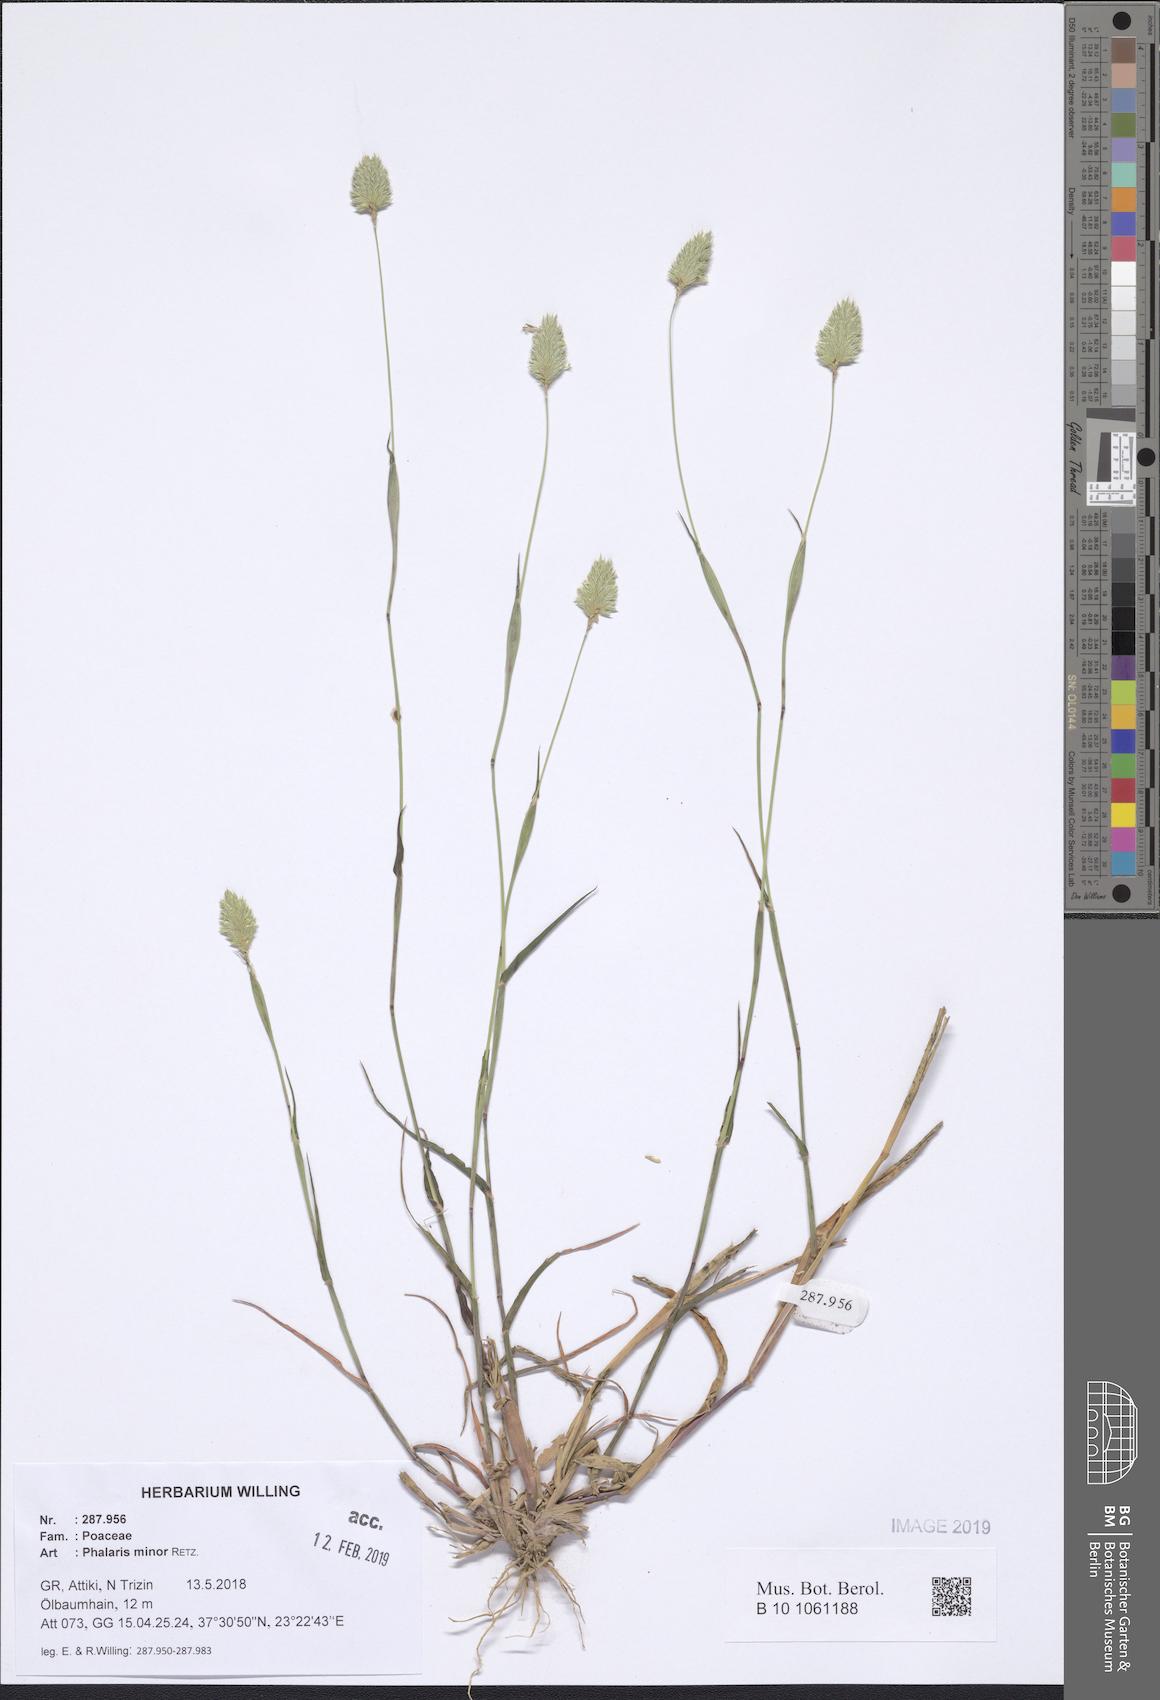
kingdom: Plantae
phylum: Tracheophyta
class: Liliopsida
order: Poales
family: Poaceae
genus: Phalaris
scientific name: Phalaris minor
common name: Littleseed canarygrass
